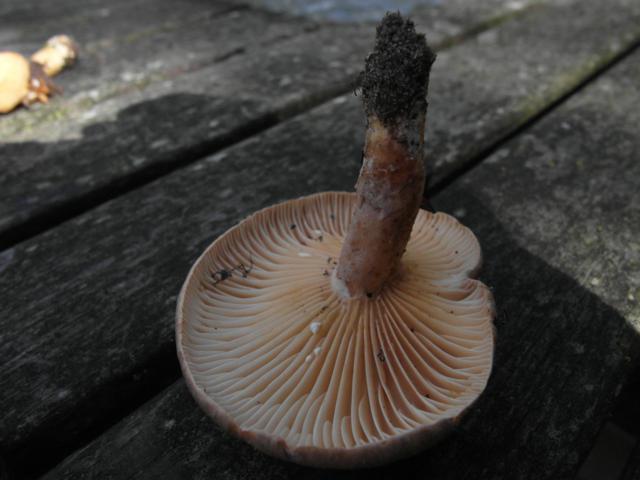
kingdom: Fungi
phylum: Basidiomycota
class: Agaricomycetes
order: Russulales
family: Russulaceae
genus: Lactarius
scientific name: Lactarius pyrogalus
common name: hassel-mælkehat
